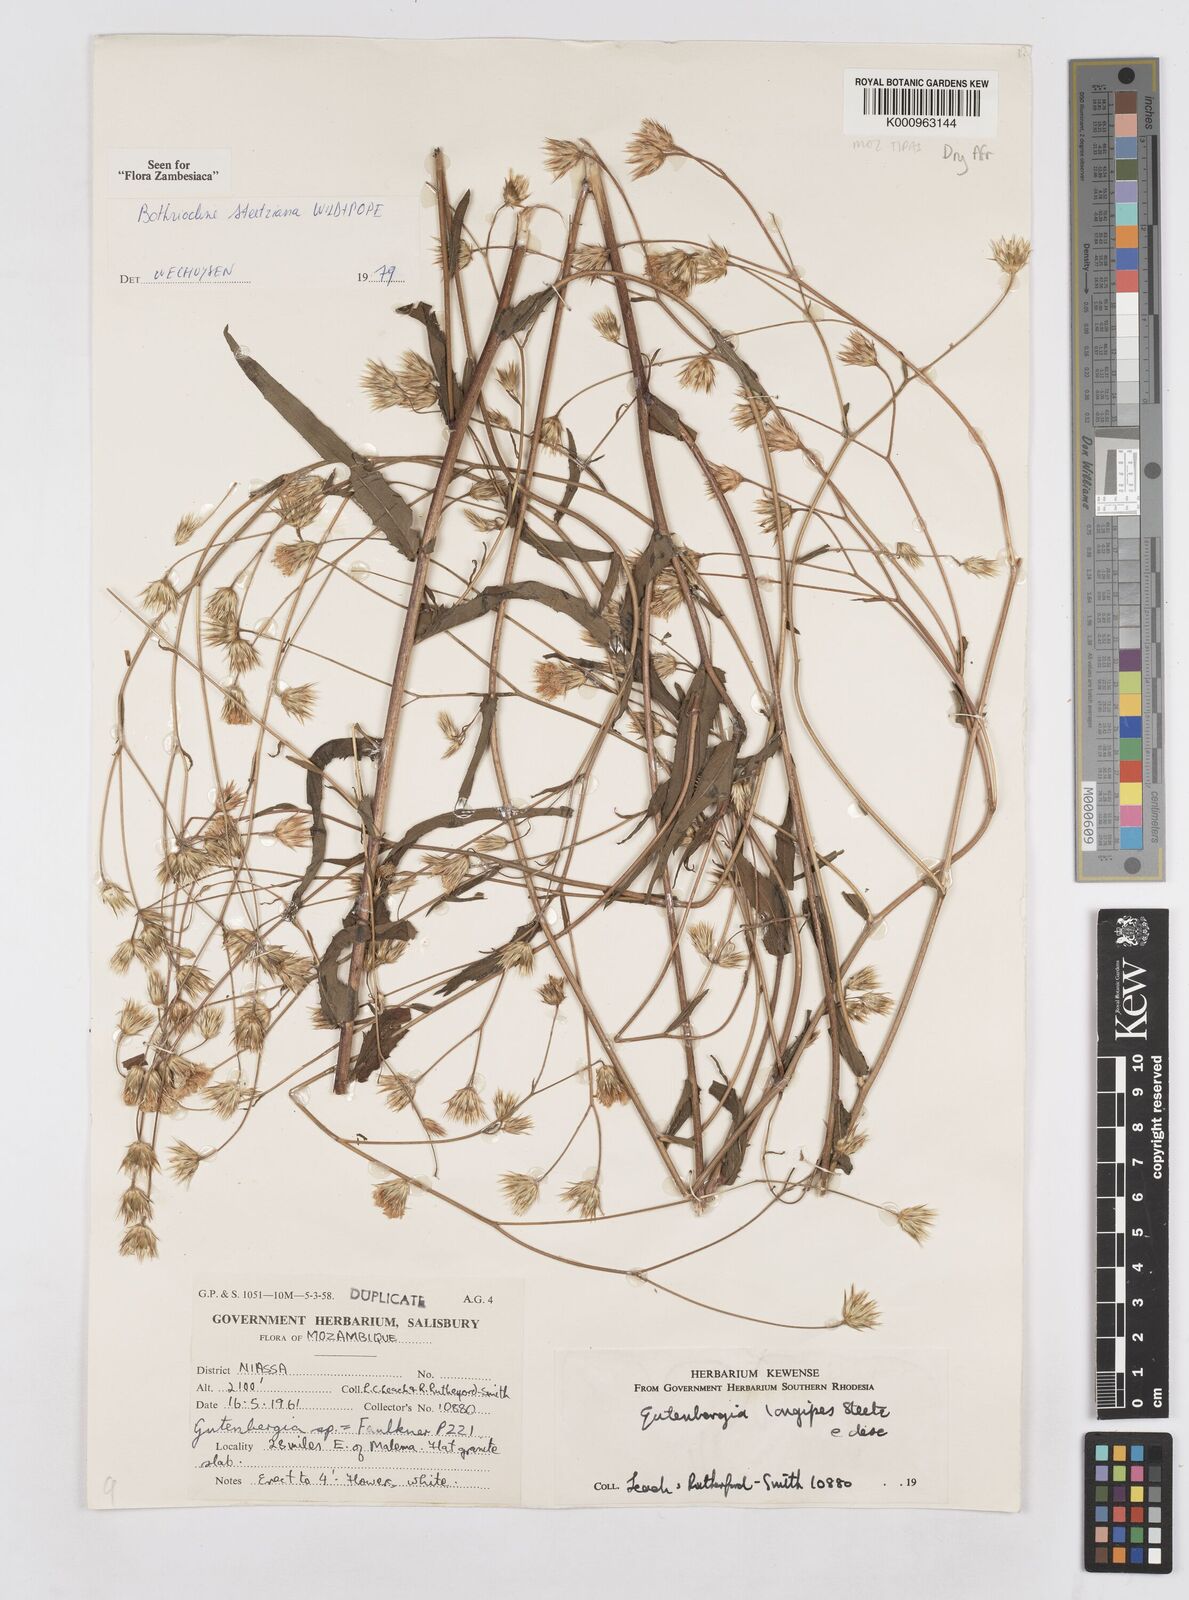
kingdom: Plantae
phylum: Tracheophyta
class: Magnoliopsida
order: Asterales
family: Asteraceae
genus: Bothriocline
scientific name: Bothriocline steetziana
